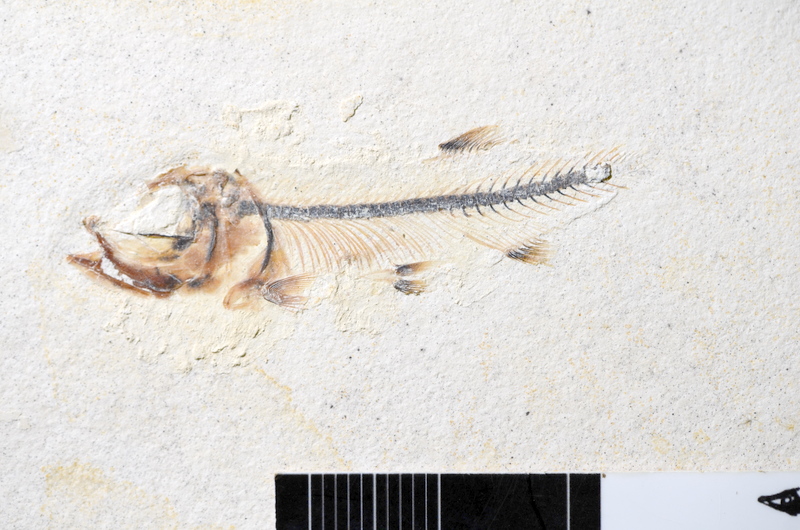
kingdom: Animalia
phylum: Chordata
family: Ascalaboidae
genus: Ebertichthys
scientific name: Ebertichthys ettlingensis
